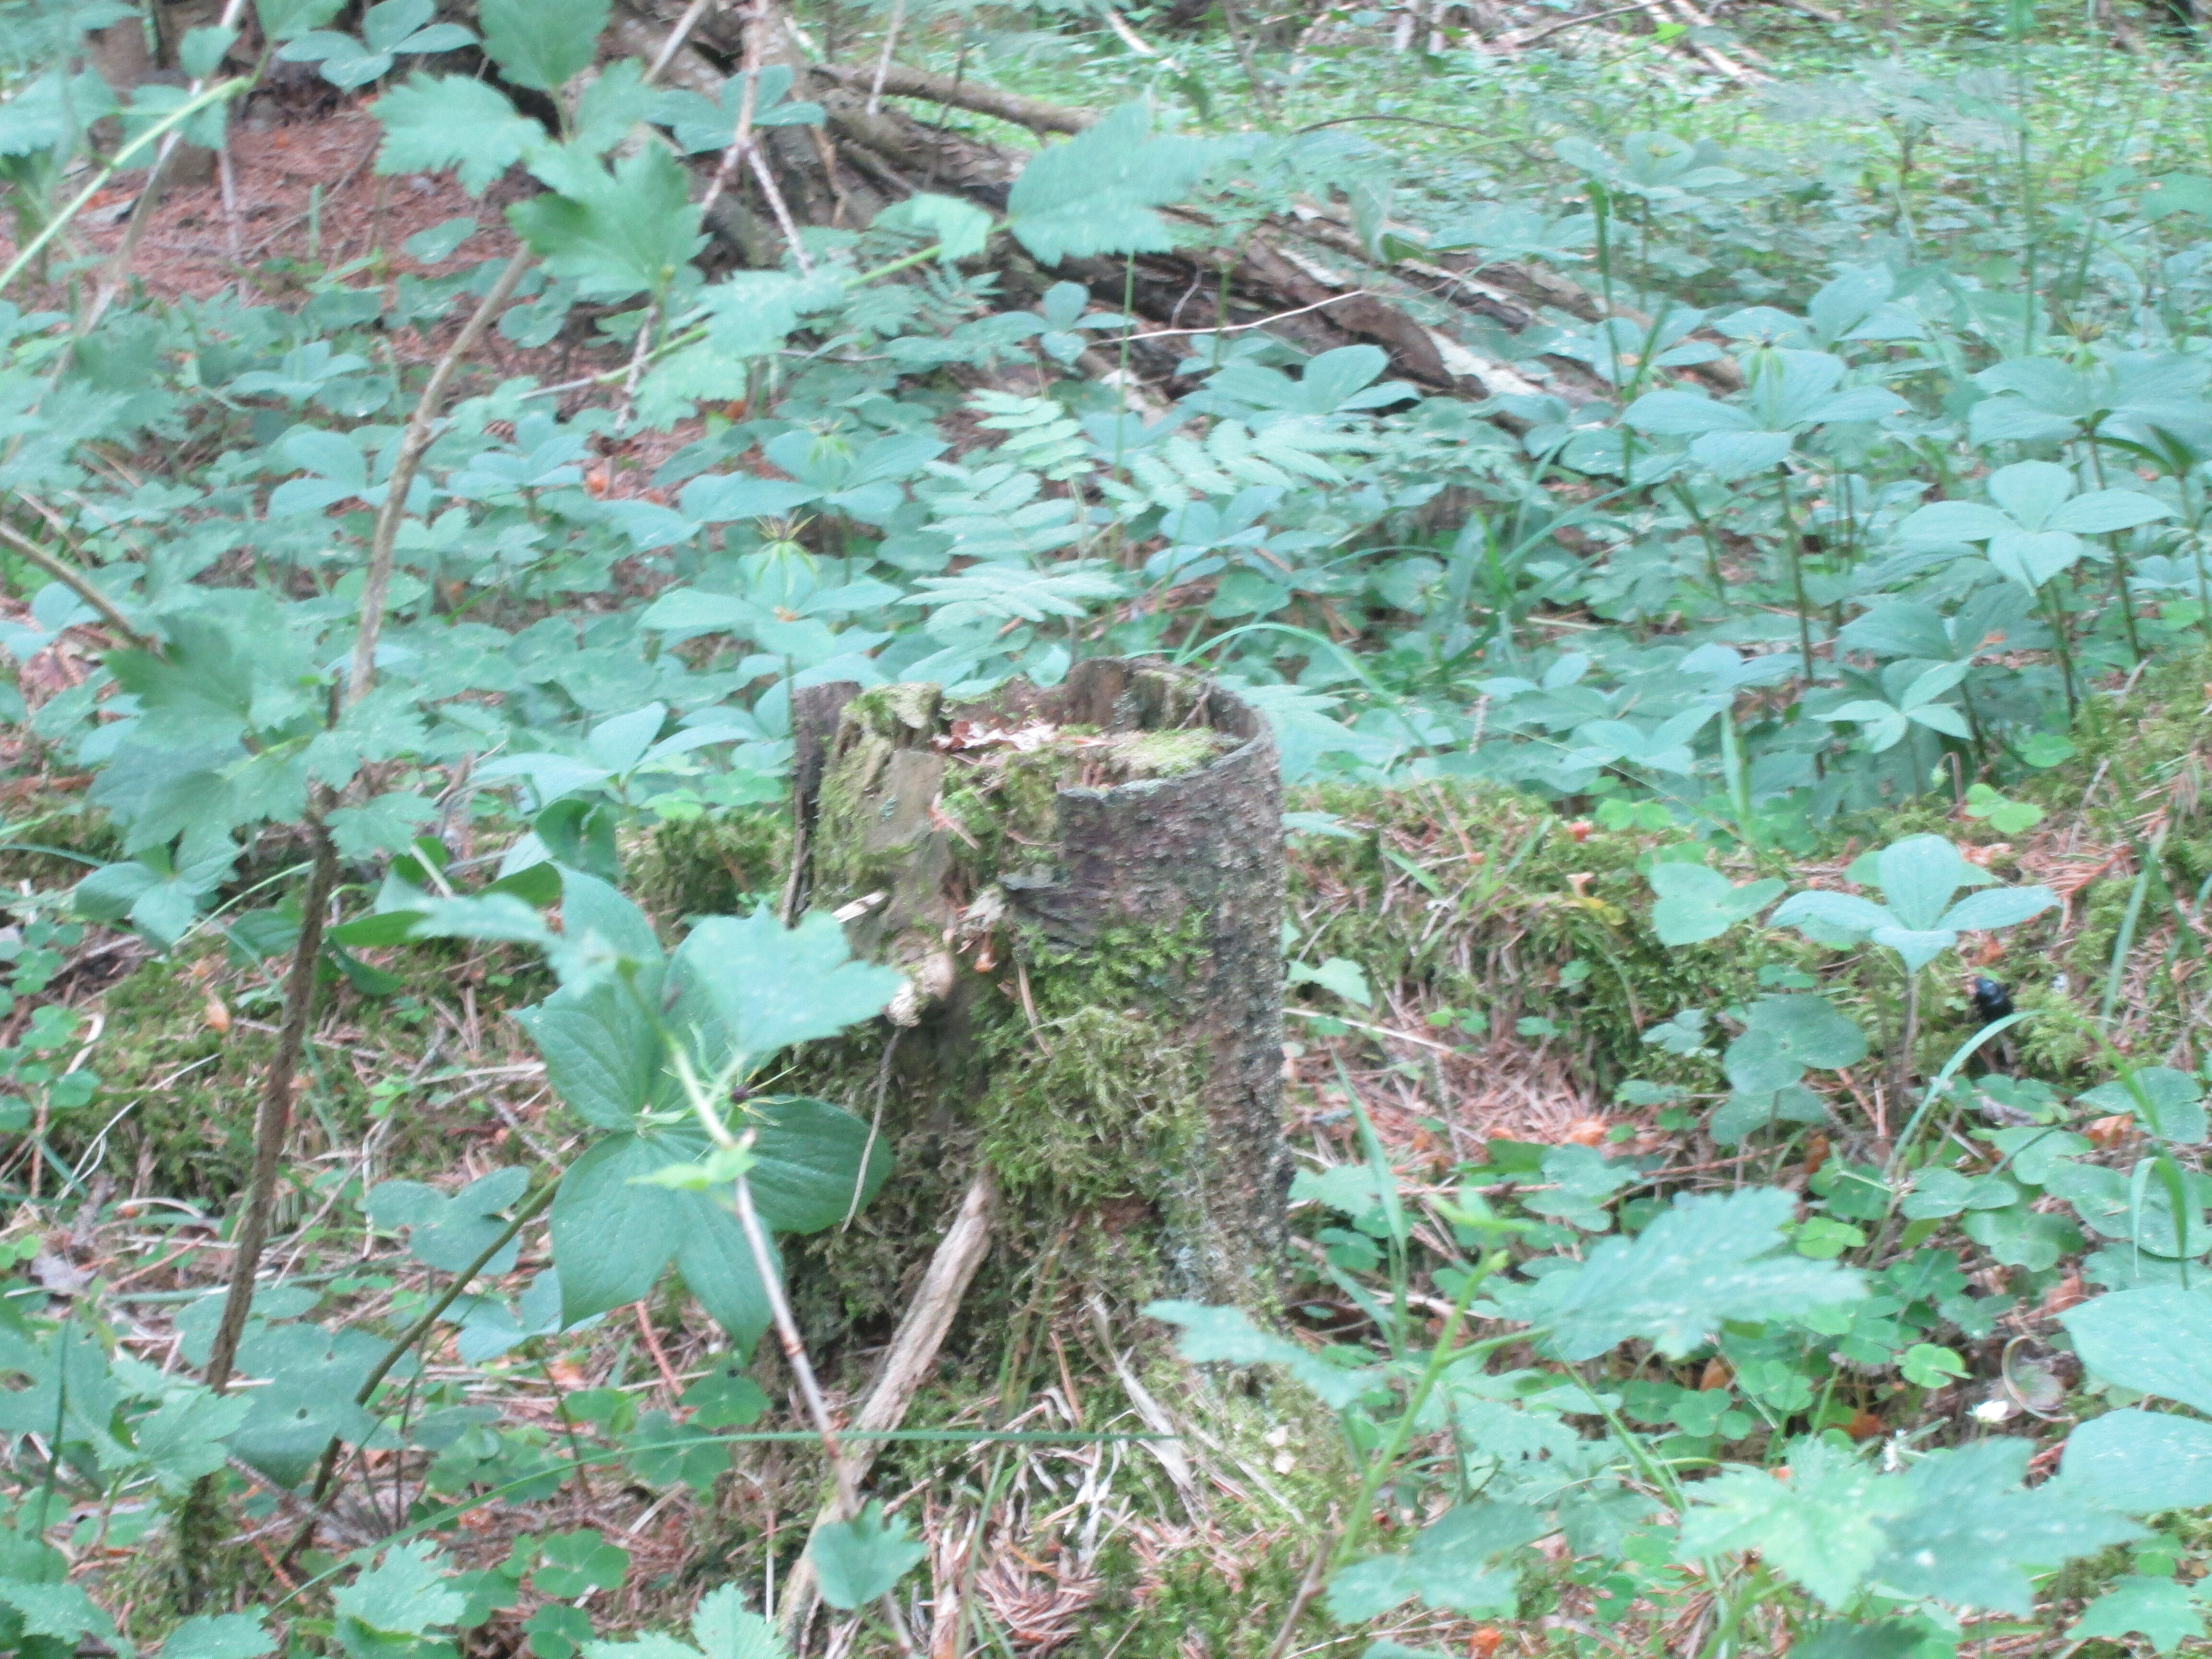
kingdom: Plantae
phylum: Bryophyta
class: Bryopsida
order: Buxbaumiales
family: Buxbaumiaceae
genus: Buxbaumia
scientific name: Buxbaumia viridis
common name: Green shield-moss
